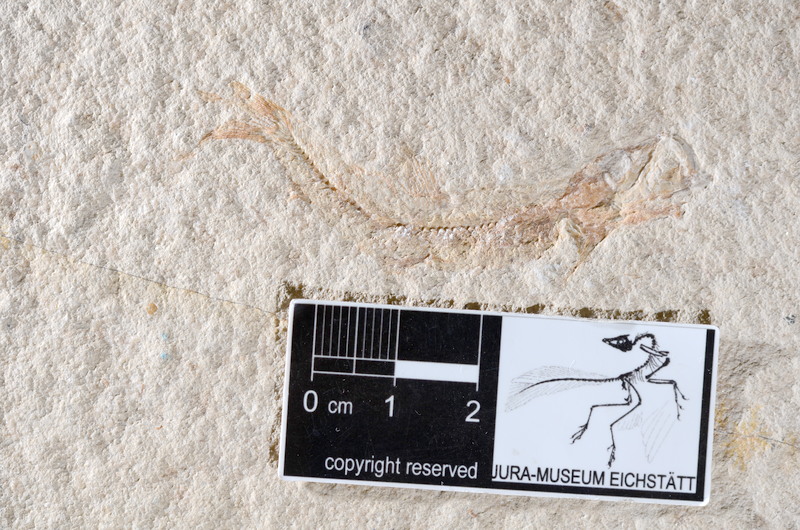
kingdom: Animalia
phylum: Chordata
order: Salmoniformes
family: Orthogonikleithridae
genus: Leptolepides
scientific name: Leptolepides sprattiformis
